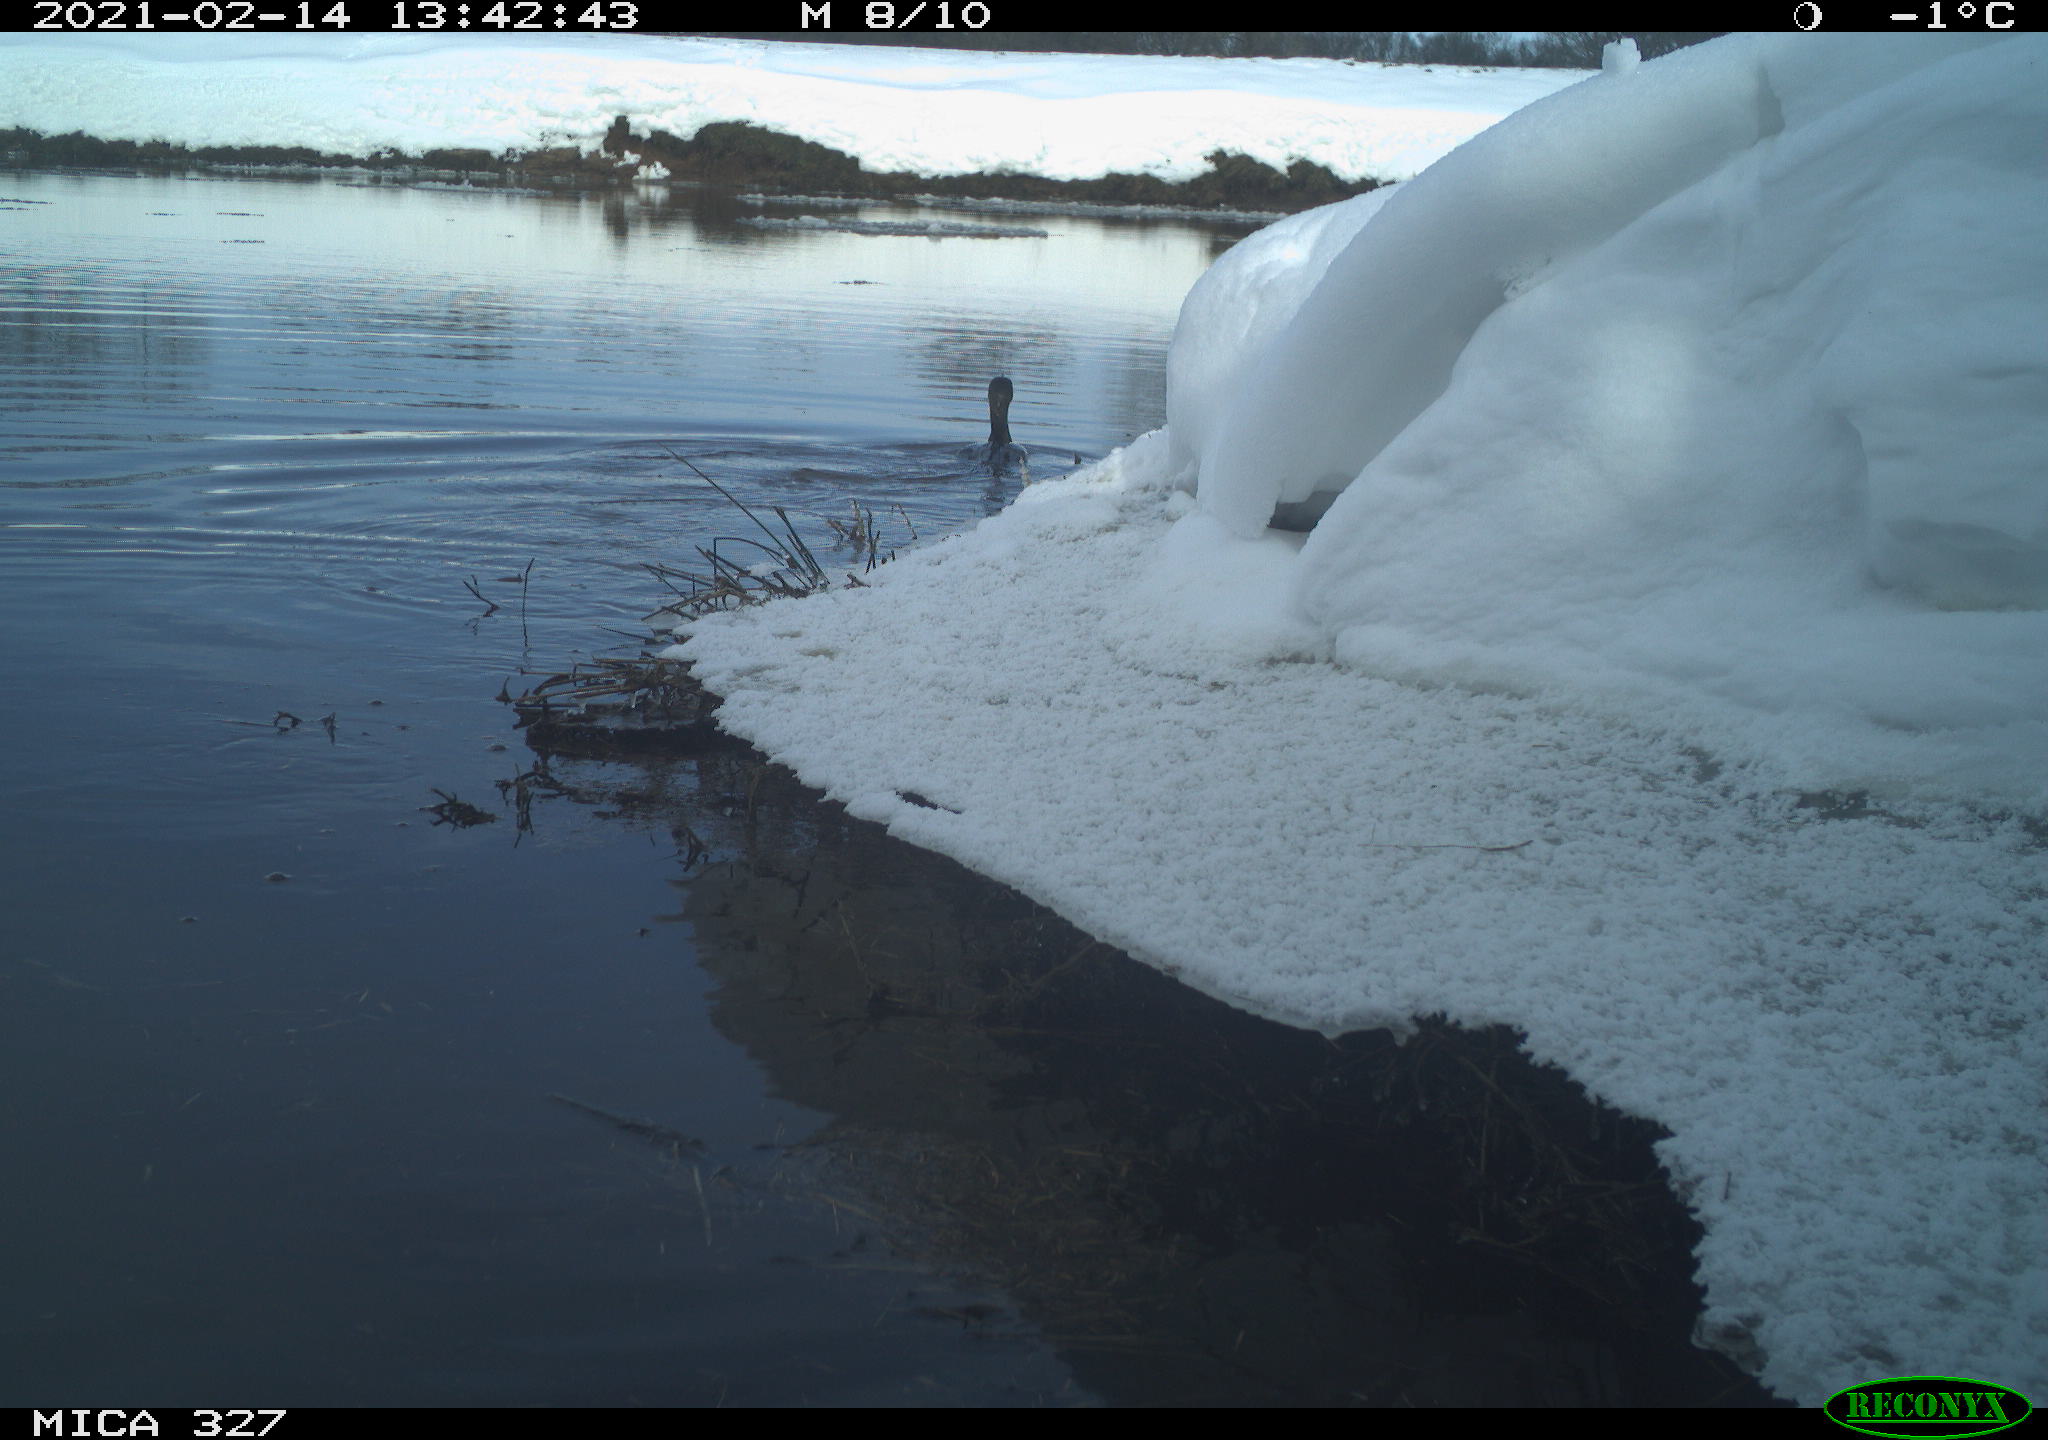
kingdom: Animalia
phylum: Chordata
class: Aves
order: Suliformes
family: Phalacrocoracidae
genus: Phalacrocorax
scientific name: Phalacrocorax carbo
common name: Great cormorant
